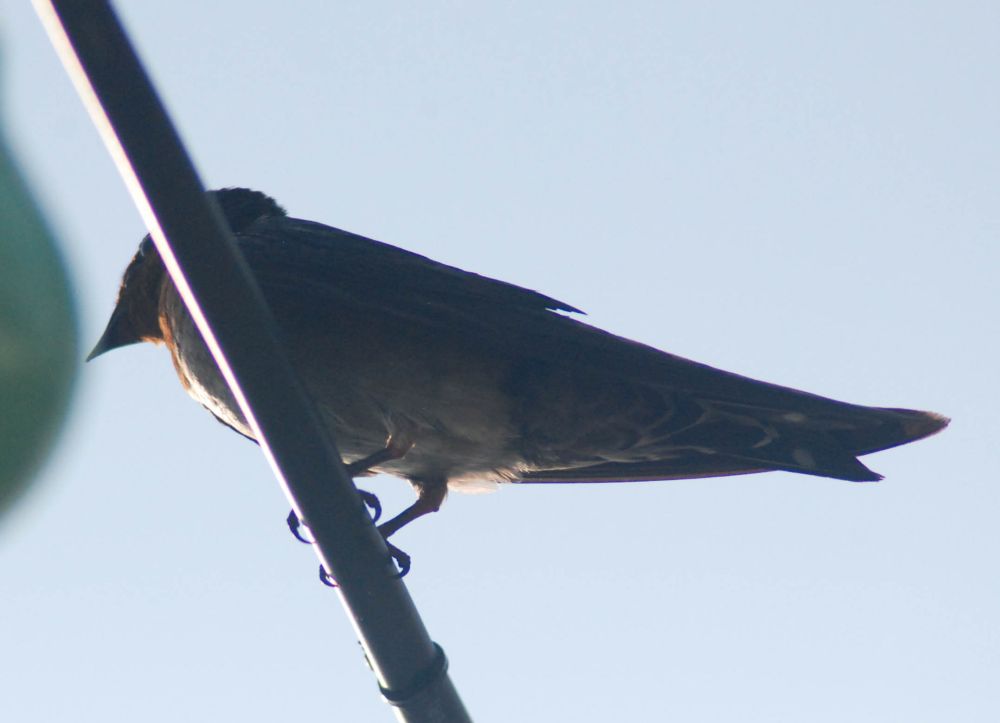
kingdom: Animalia
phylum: Chordata
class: Aves
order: Passeriformes
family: Hirundinidae
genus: Hirundo
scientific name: Hirundo tahitica
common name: Pacific swallow
